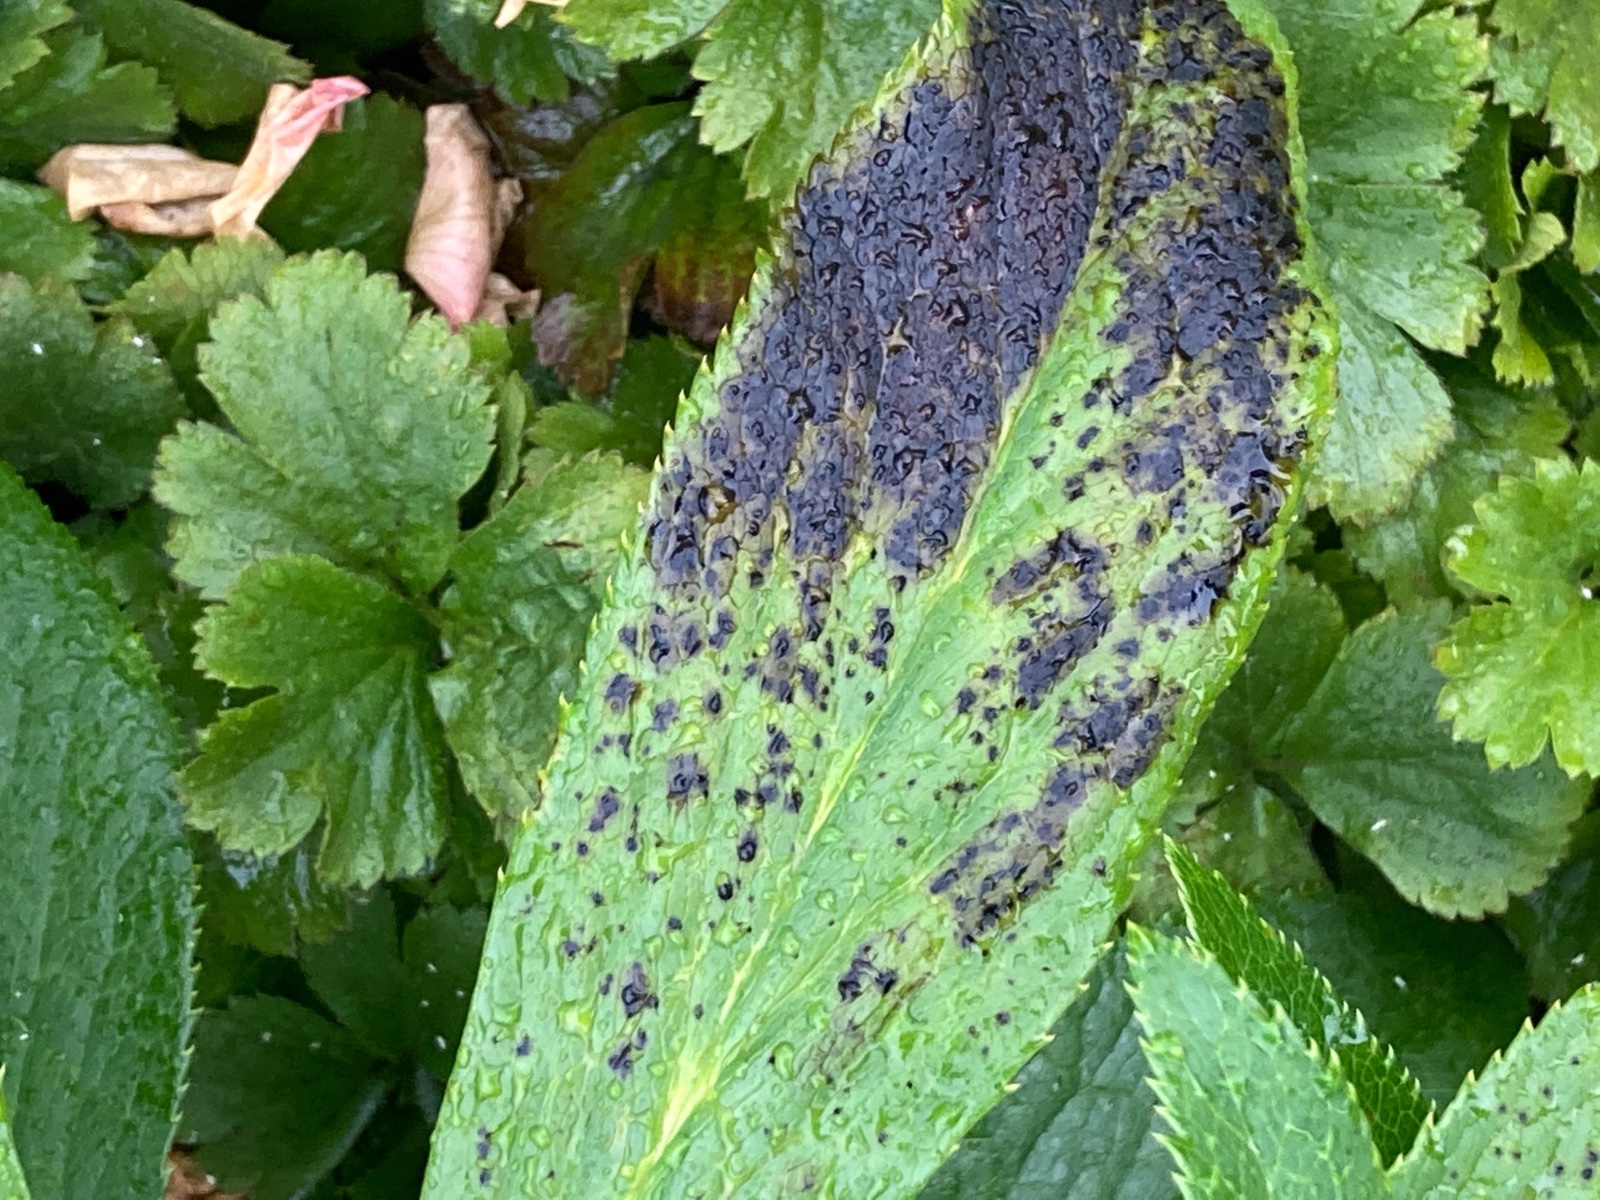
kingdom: Fungi
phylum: Ascomycota
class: Dothideomycetes
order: Pleosporales
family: Didymellaceae
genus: Microsphaeropsis
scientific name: Microsphaeropsis hellebori
